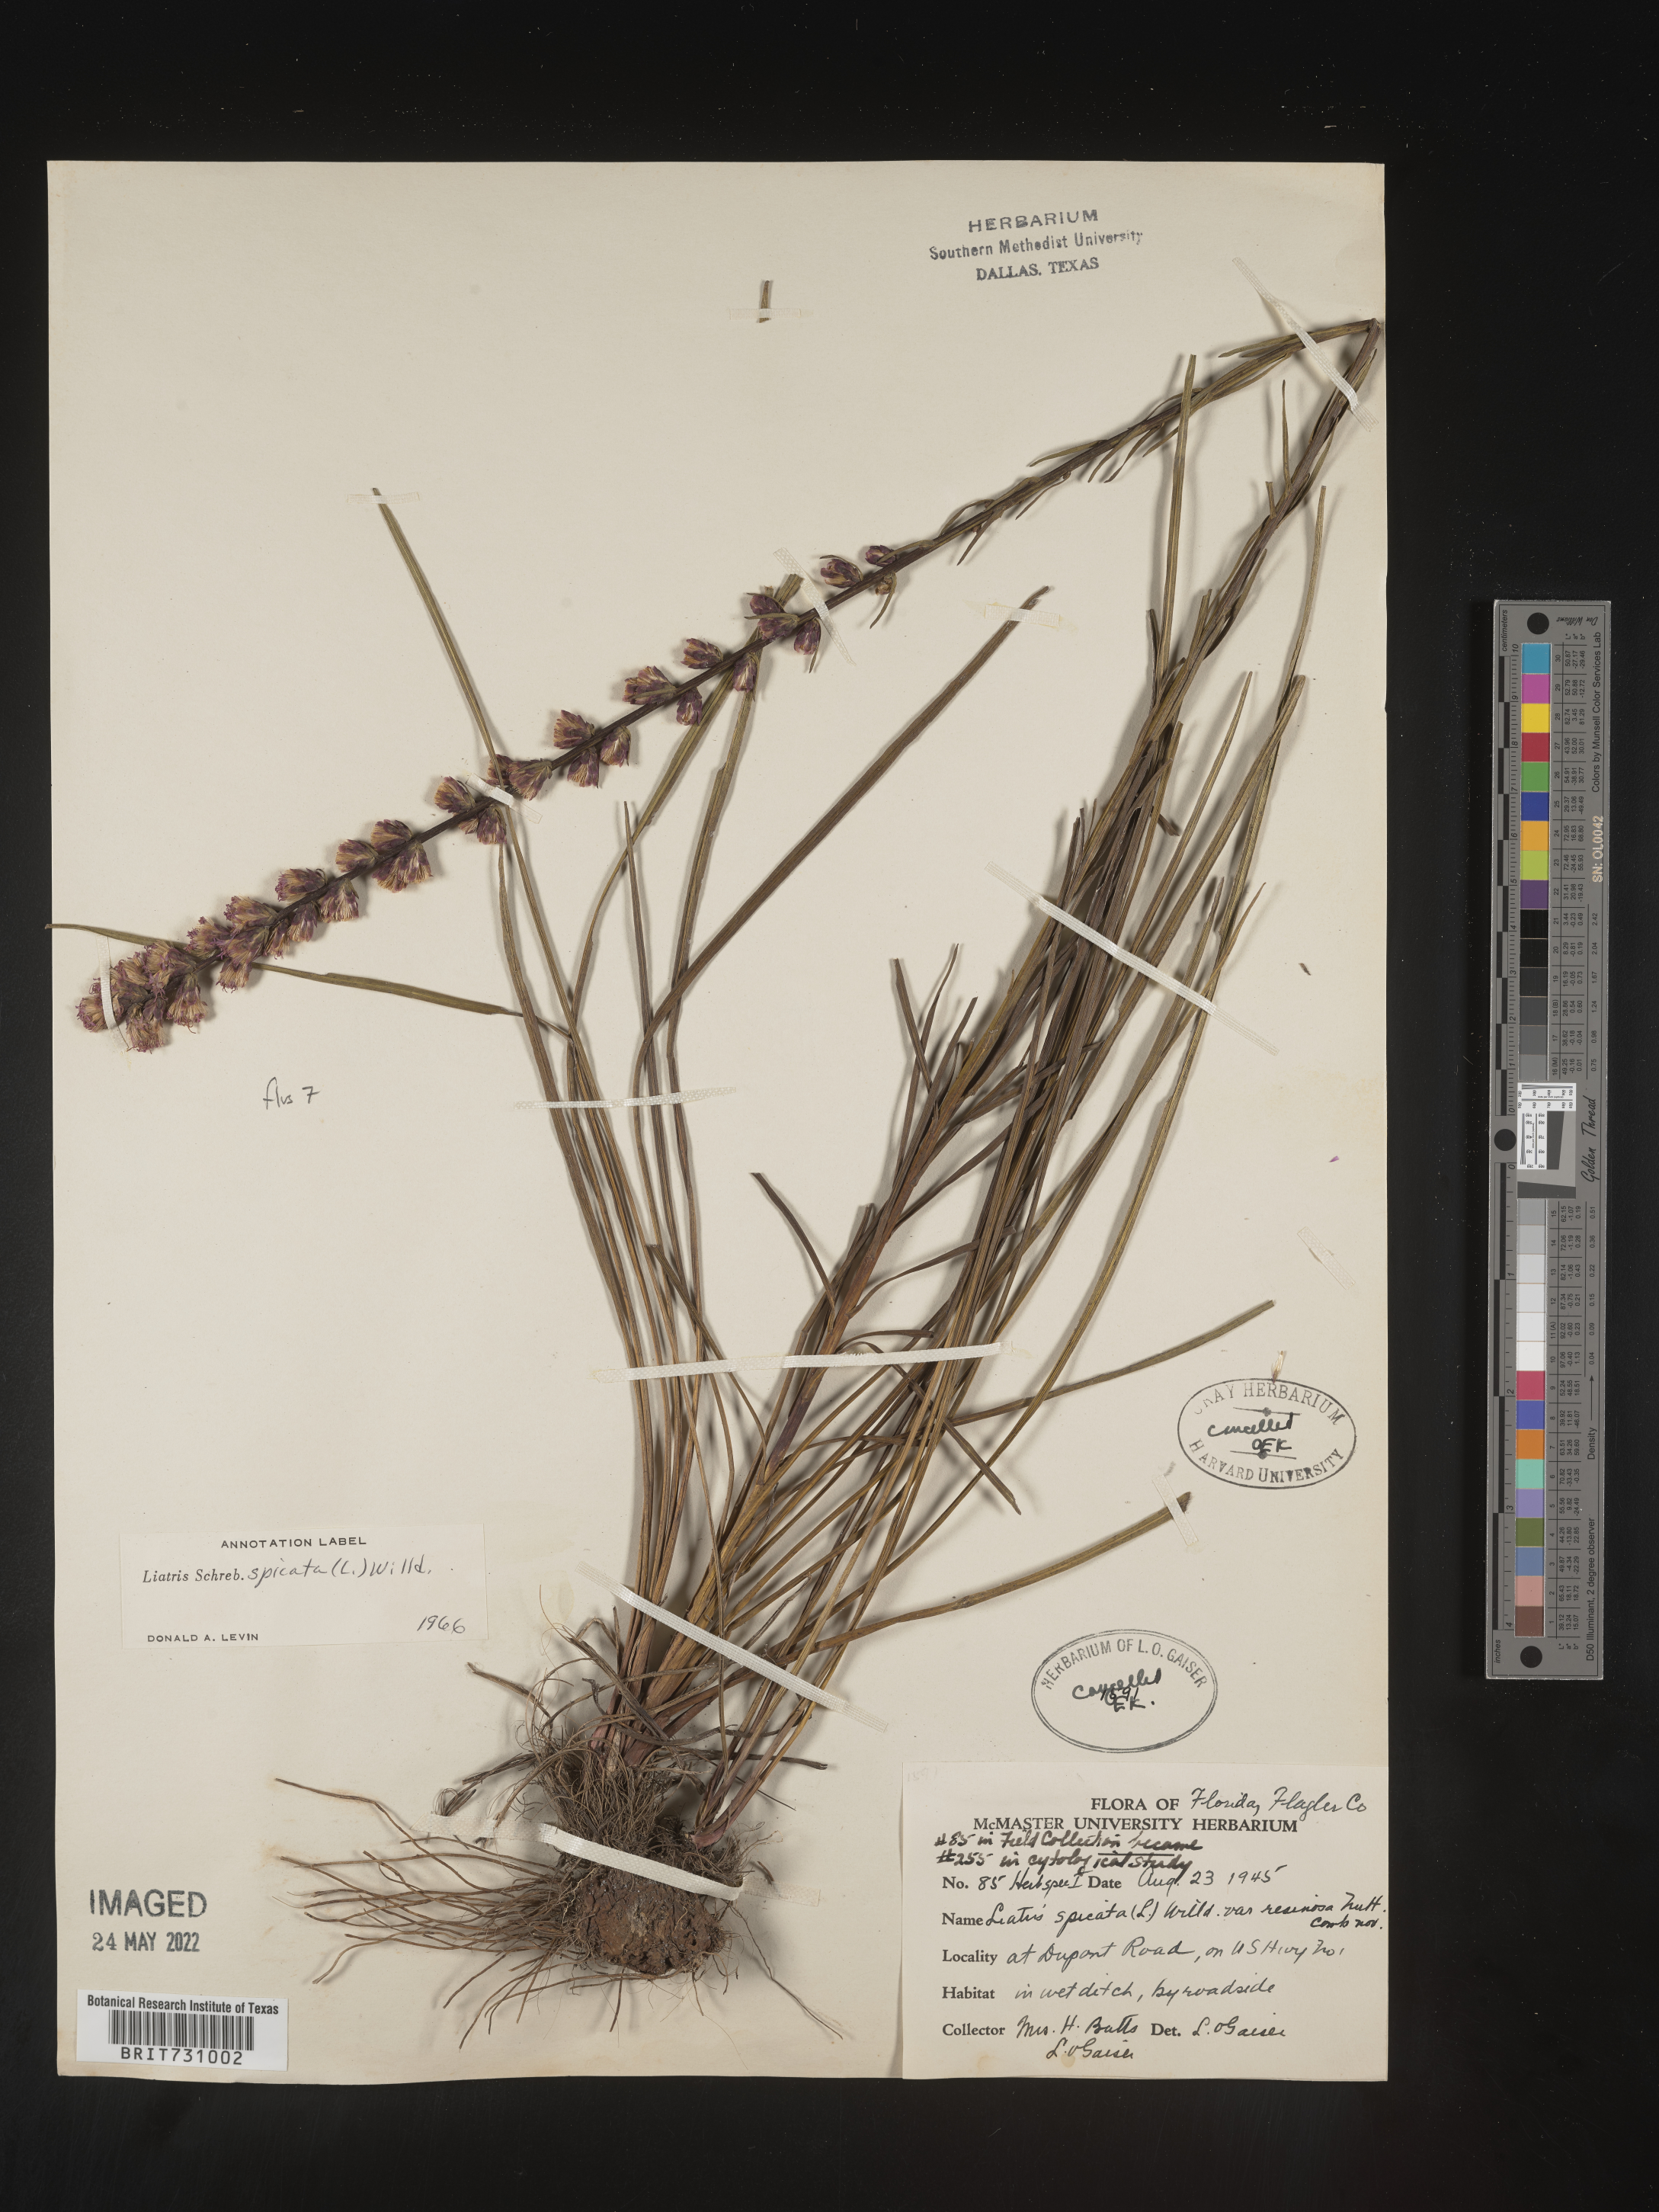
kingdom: Plantae
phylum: Tracheophyta
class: Magnoliopsida
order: Asterales
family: Asteraceae
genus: Liatris
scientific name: Liatris spicata
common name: Florist gayfeather
